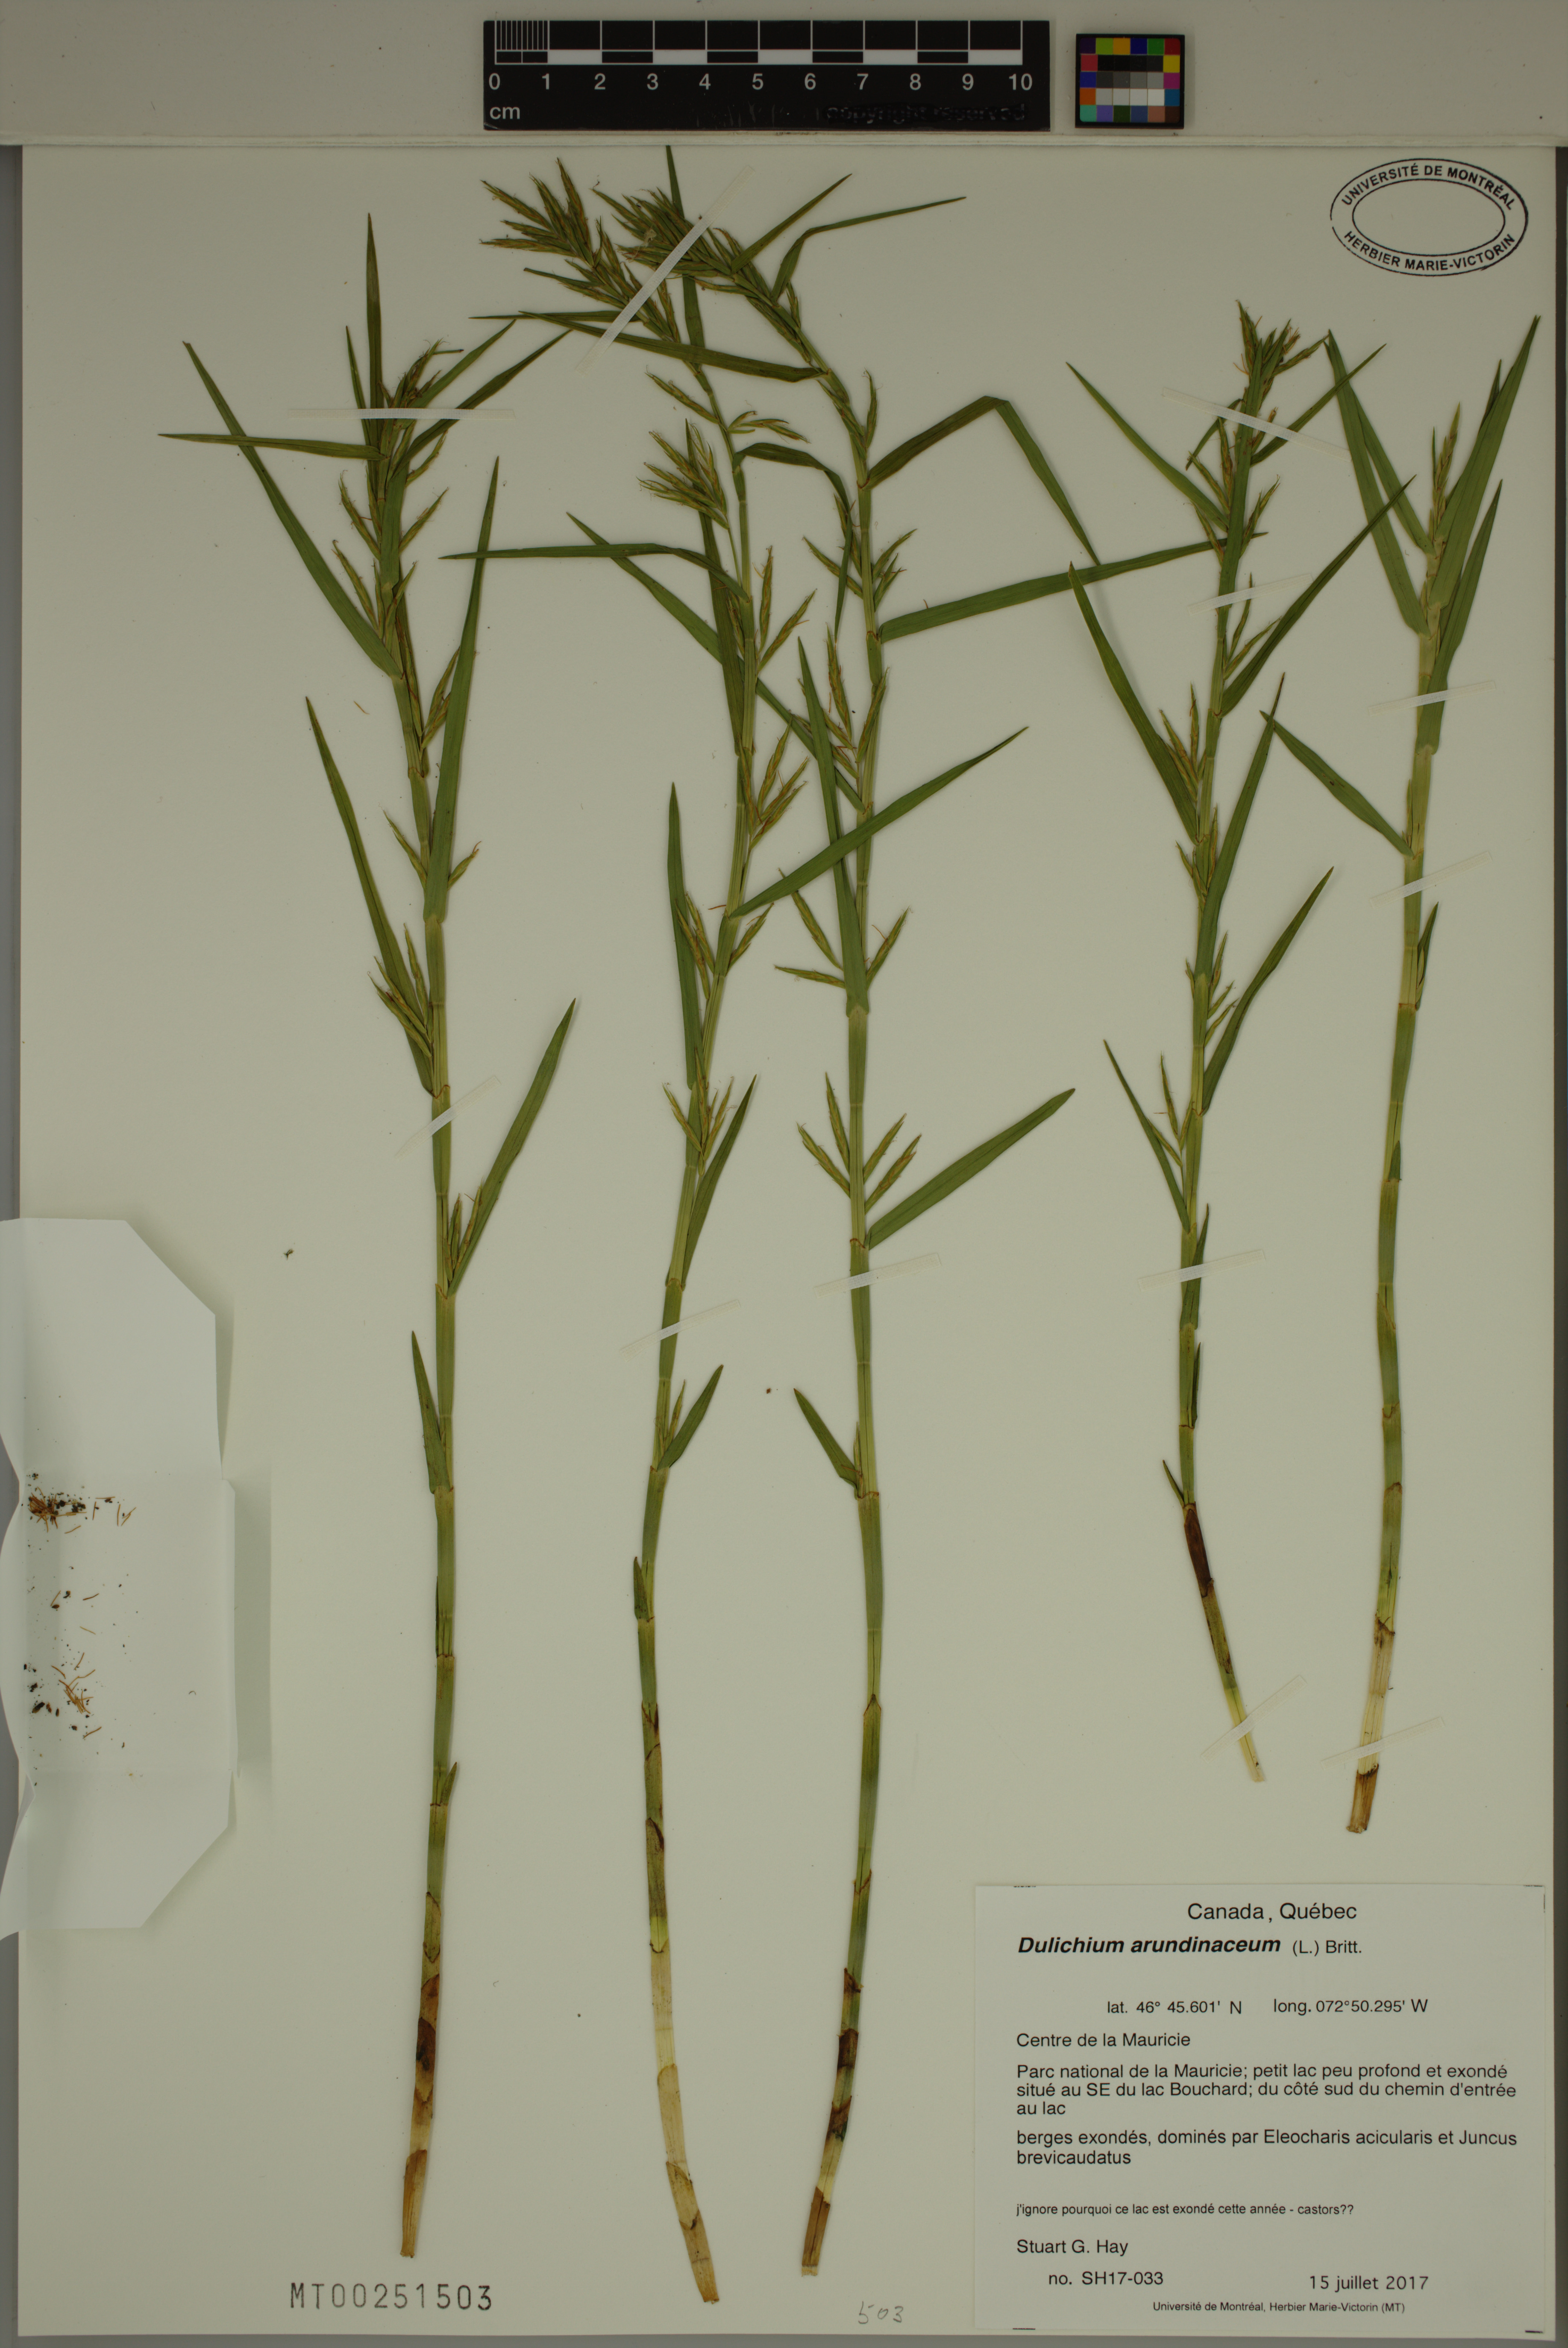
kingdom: Plantae
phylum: Tracheophyta
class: Liliopsida
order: Poales
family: Cyperaceae
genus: Dulichium
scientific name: Dulichium arundinaceum
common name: Three-way sedge
